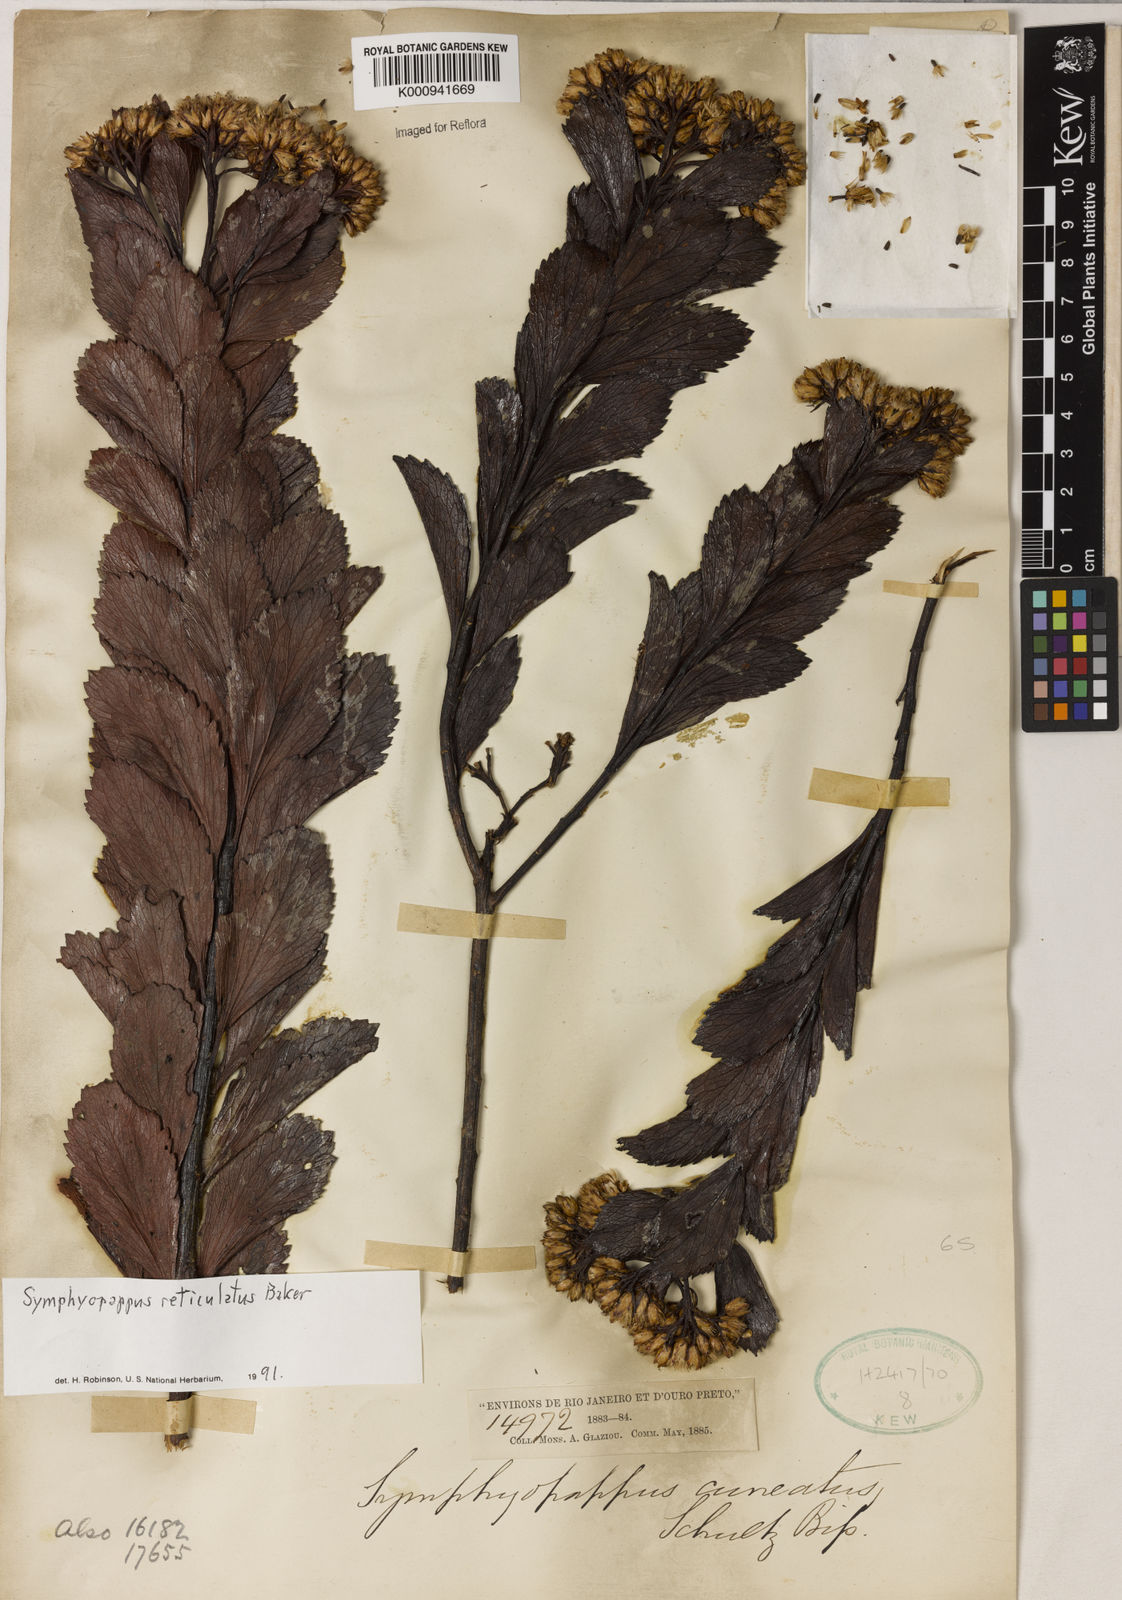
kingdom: Plantae
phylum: Tracheophyta
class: Magnoliopsida
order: Asterales
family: Asteraceae
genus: Symphyopappus
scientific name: Symphyopappus
